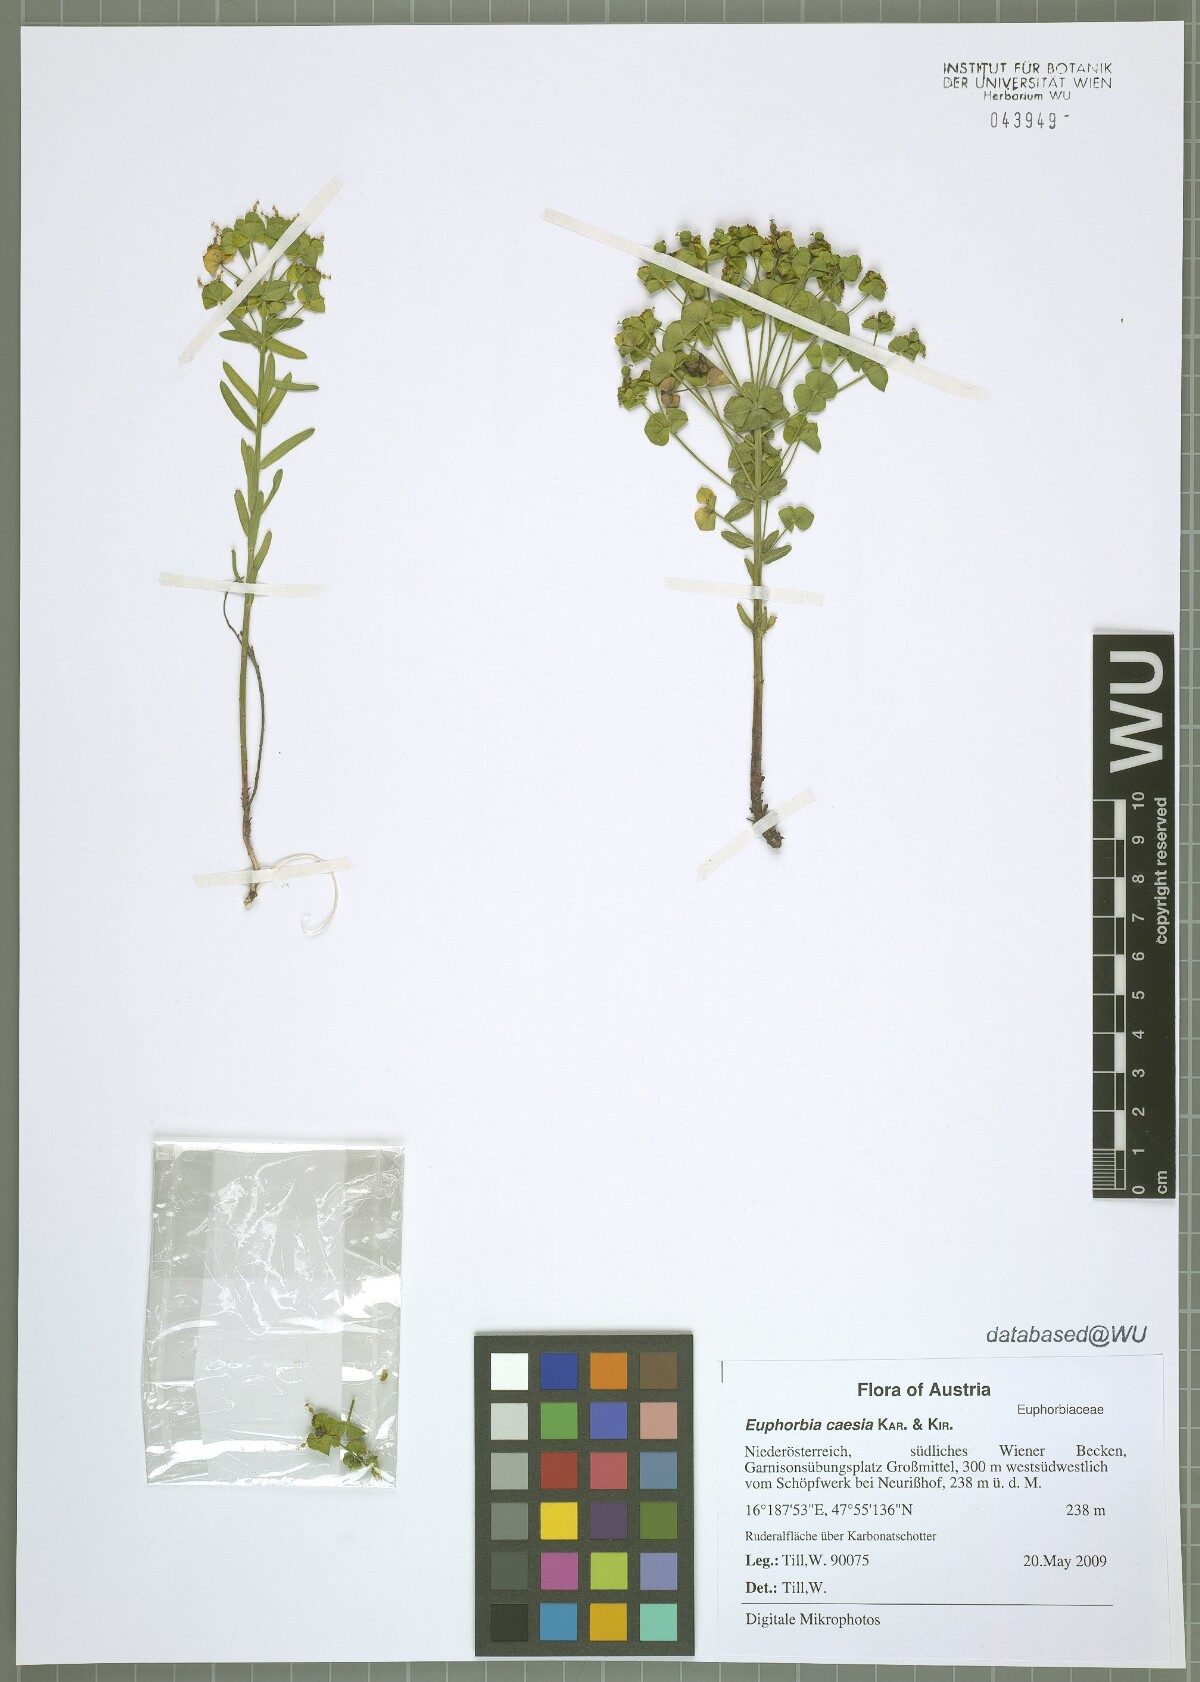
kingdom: Plantae
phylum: Tracheophyta
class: Magnoliopsida
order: Malpighiales
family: Euphorbiaceae
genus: Euphorbia
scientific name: Euphorbia caesia
